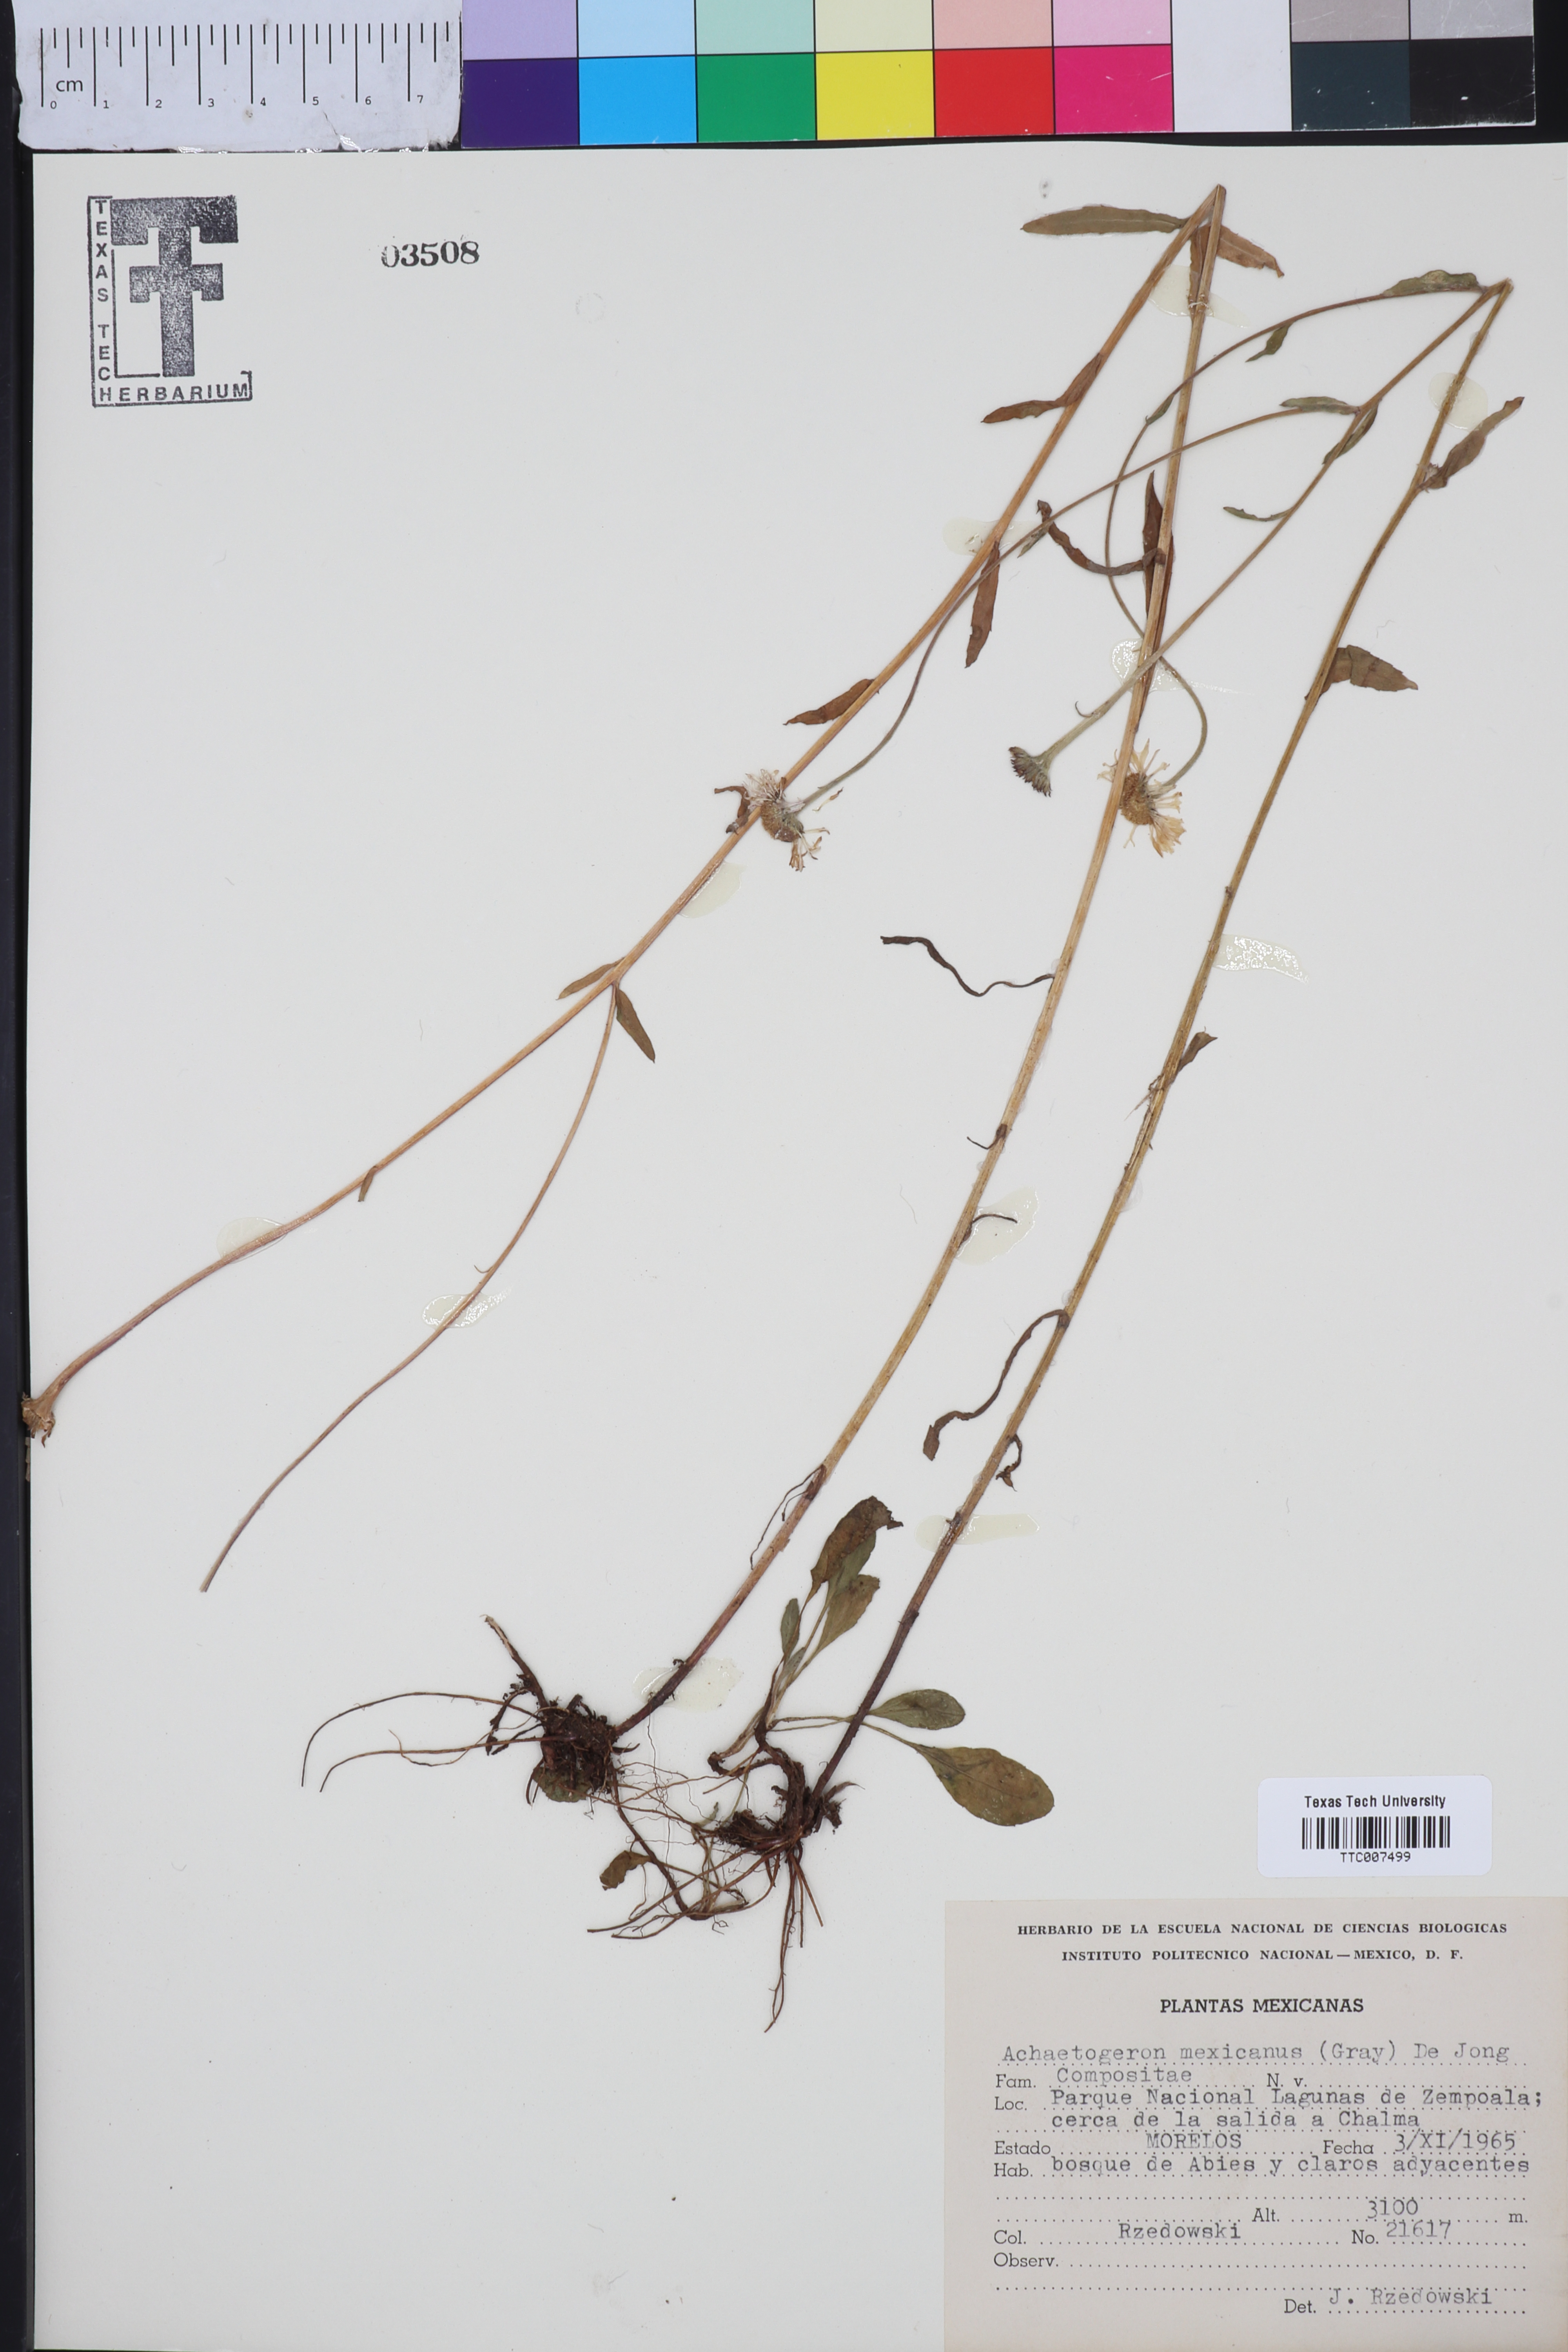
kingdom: Plantae
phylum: Tracheophyta
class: Magnoliopsida
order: Asterales
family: Asteraceae
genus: Erigeron
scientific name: Erigeron galeottii
